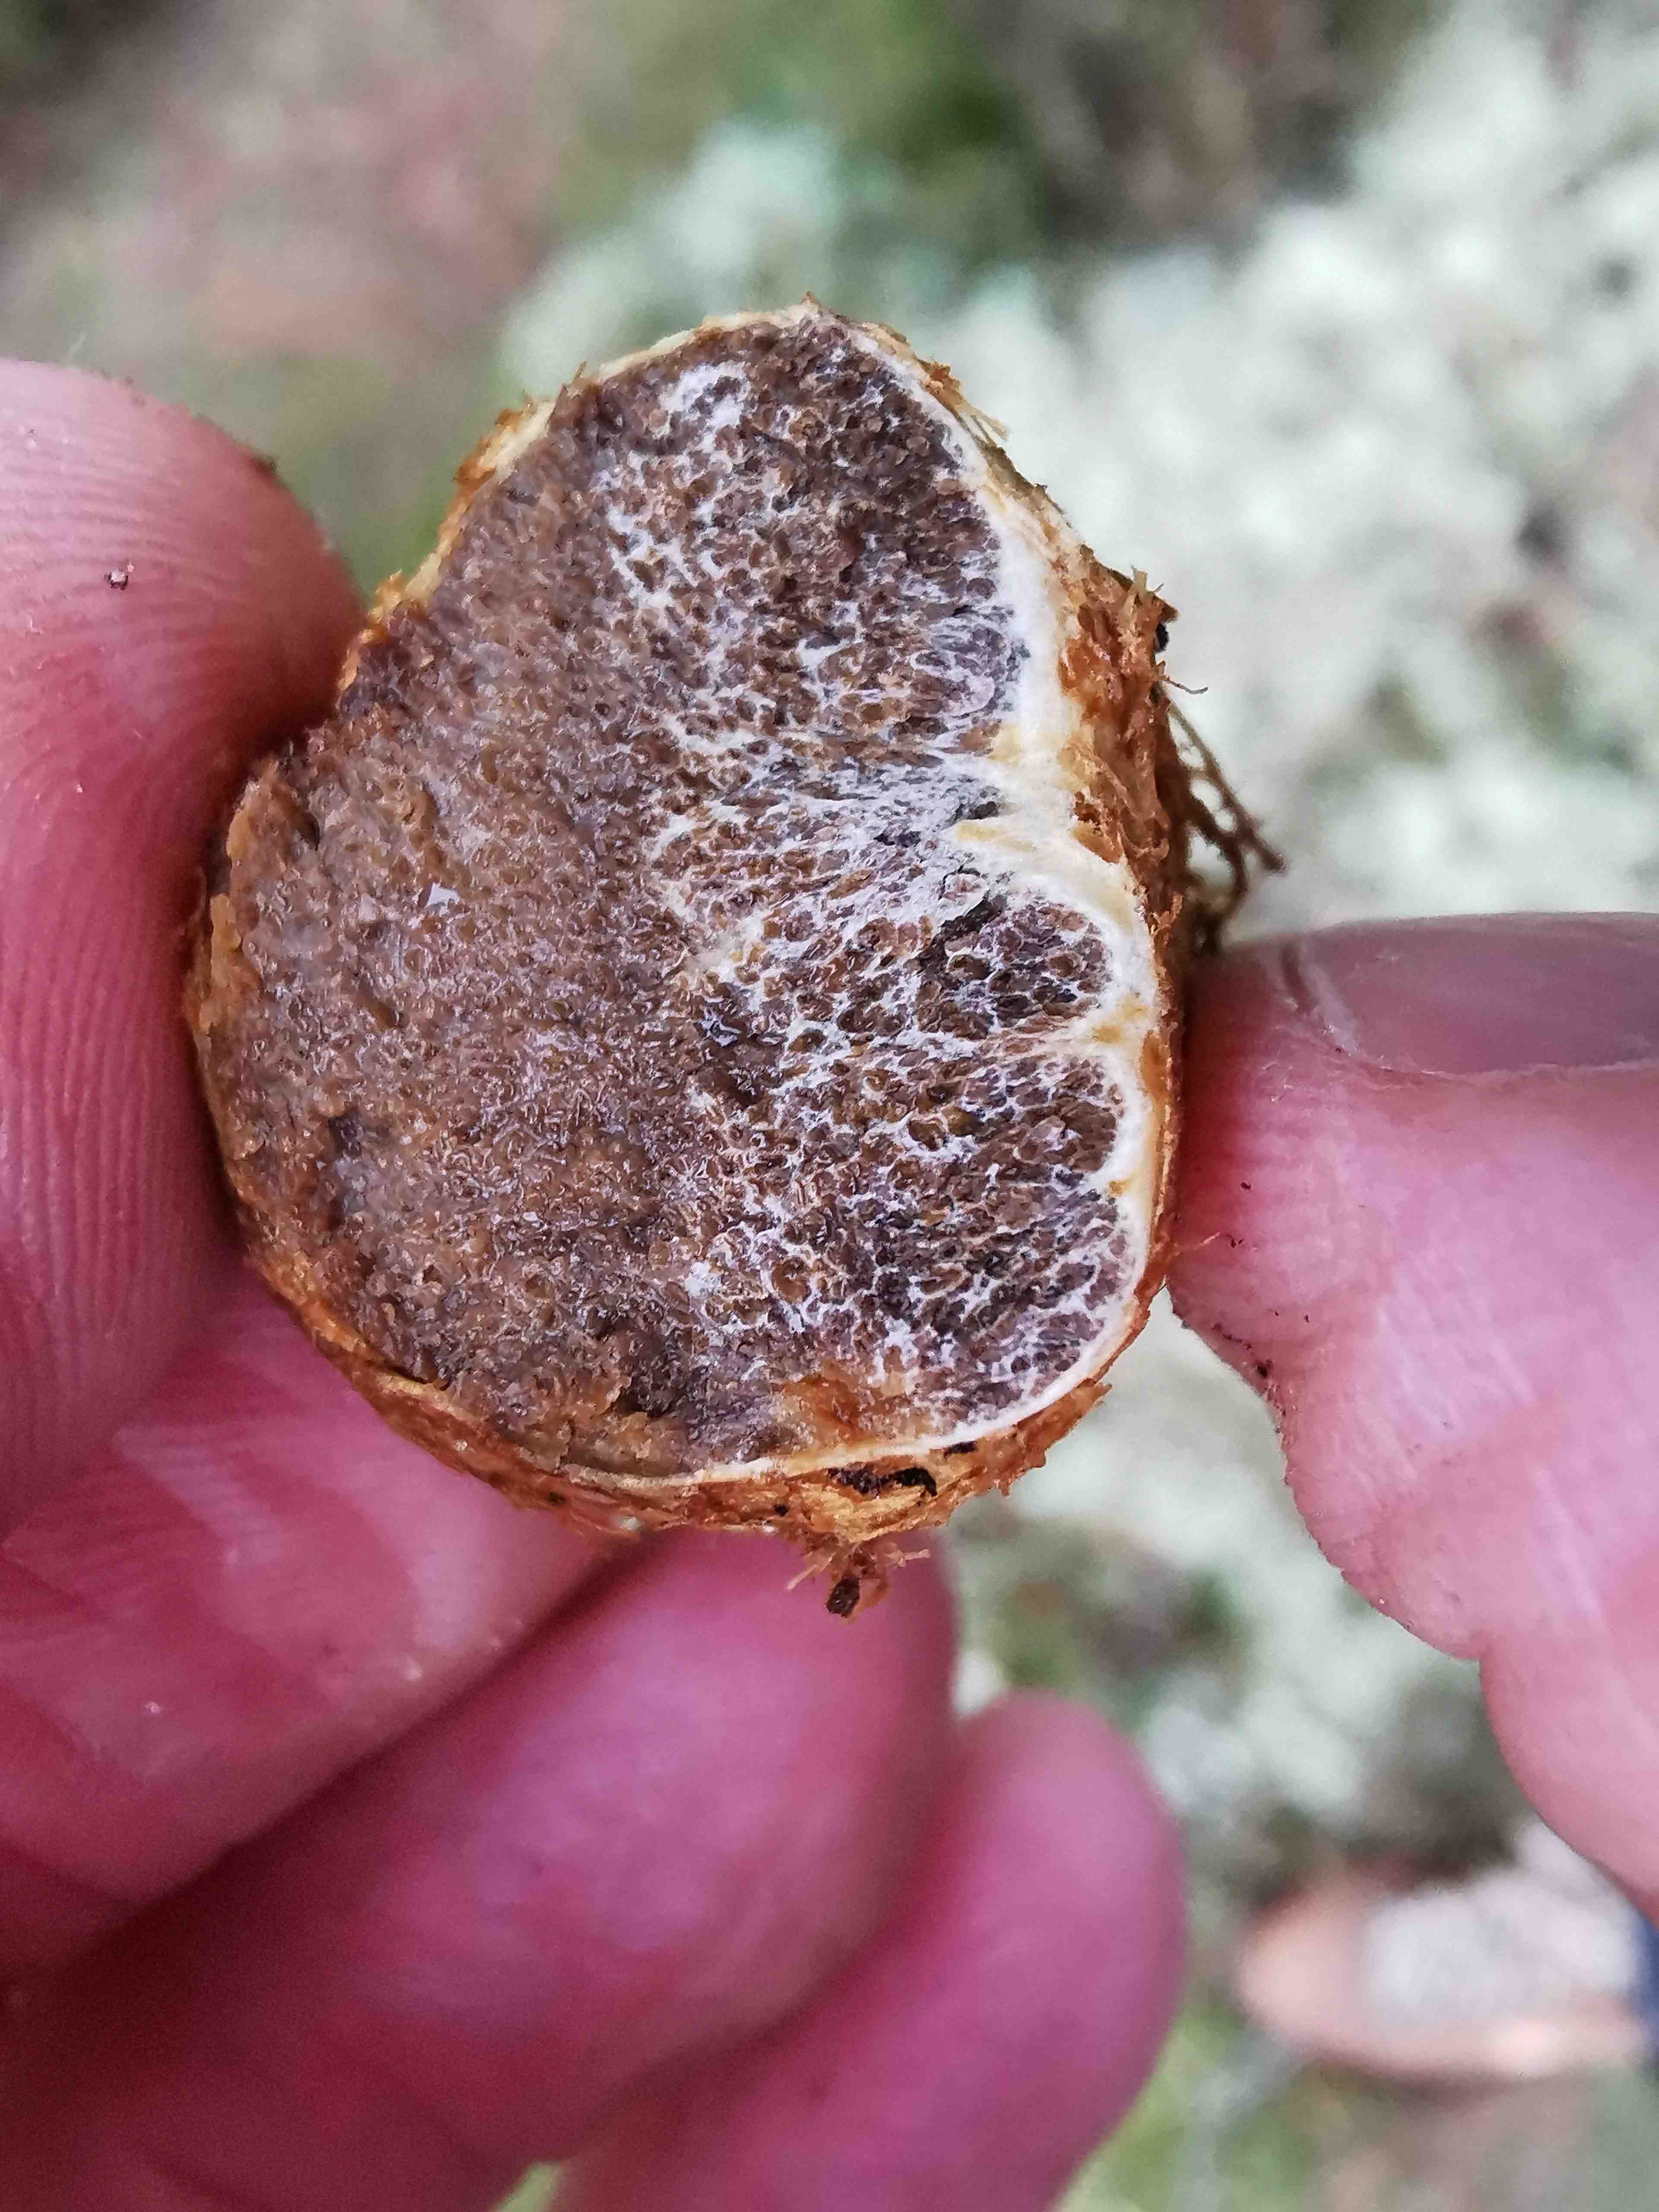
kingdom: Fungi
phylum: Basidiomycota
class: Agaricomycetes
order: Boletales
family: Rhizopogonaceae
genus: Rhizopogon
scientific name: Rhizopogon obtextus
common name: gul skægtrøffel
